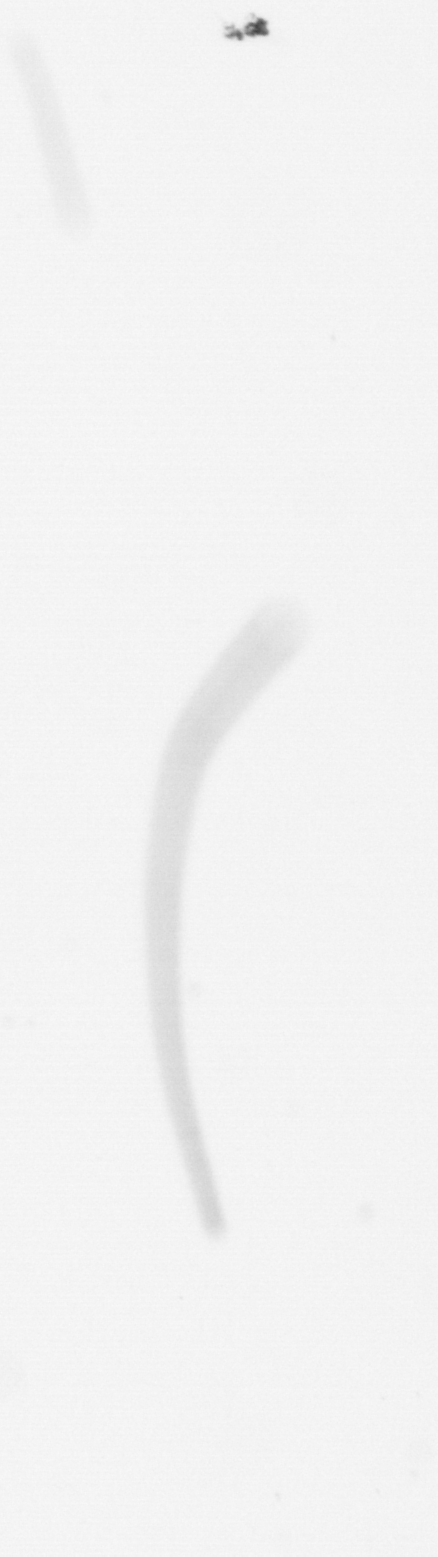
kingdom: Chromista
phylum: Ochrophyta
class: Bacillariophyceae
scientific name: Bacillariophyceae
